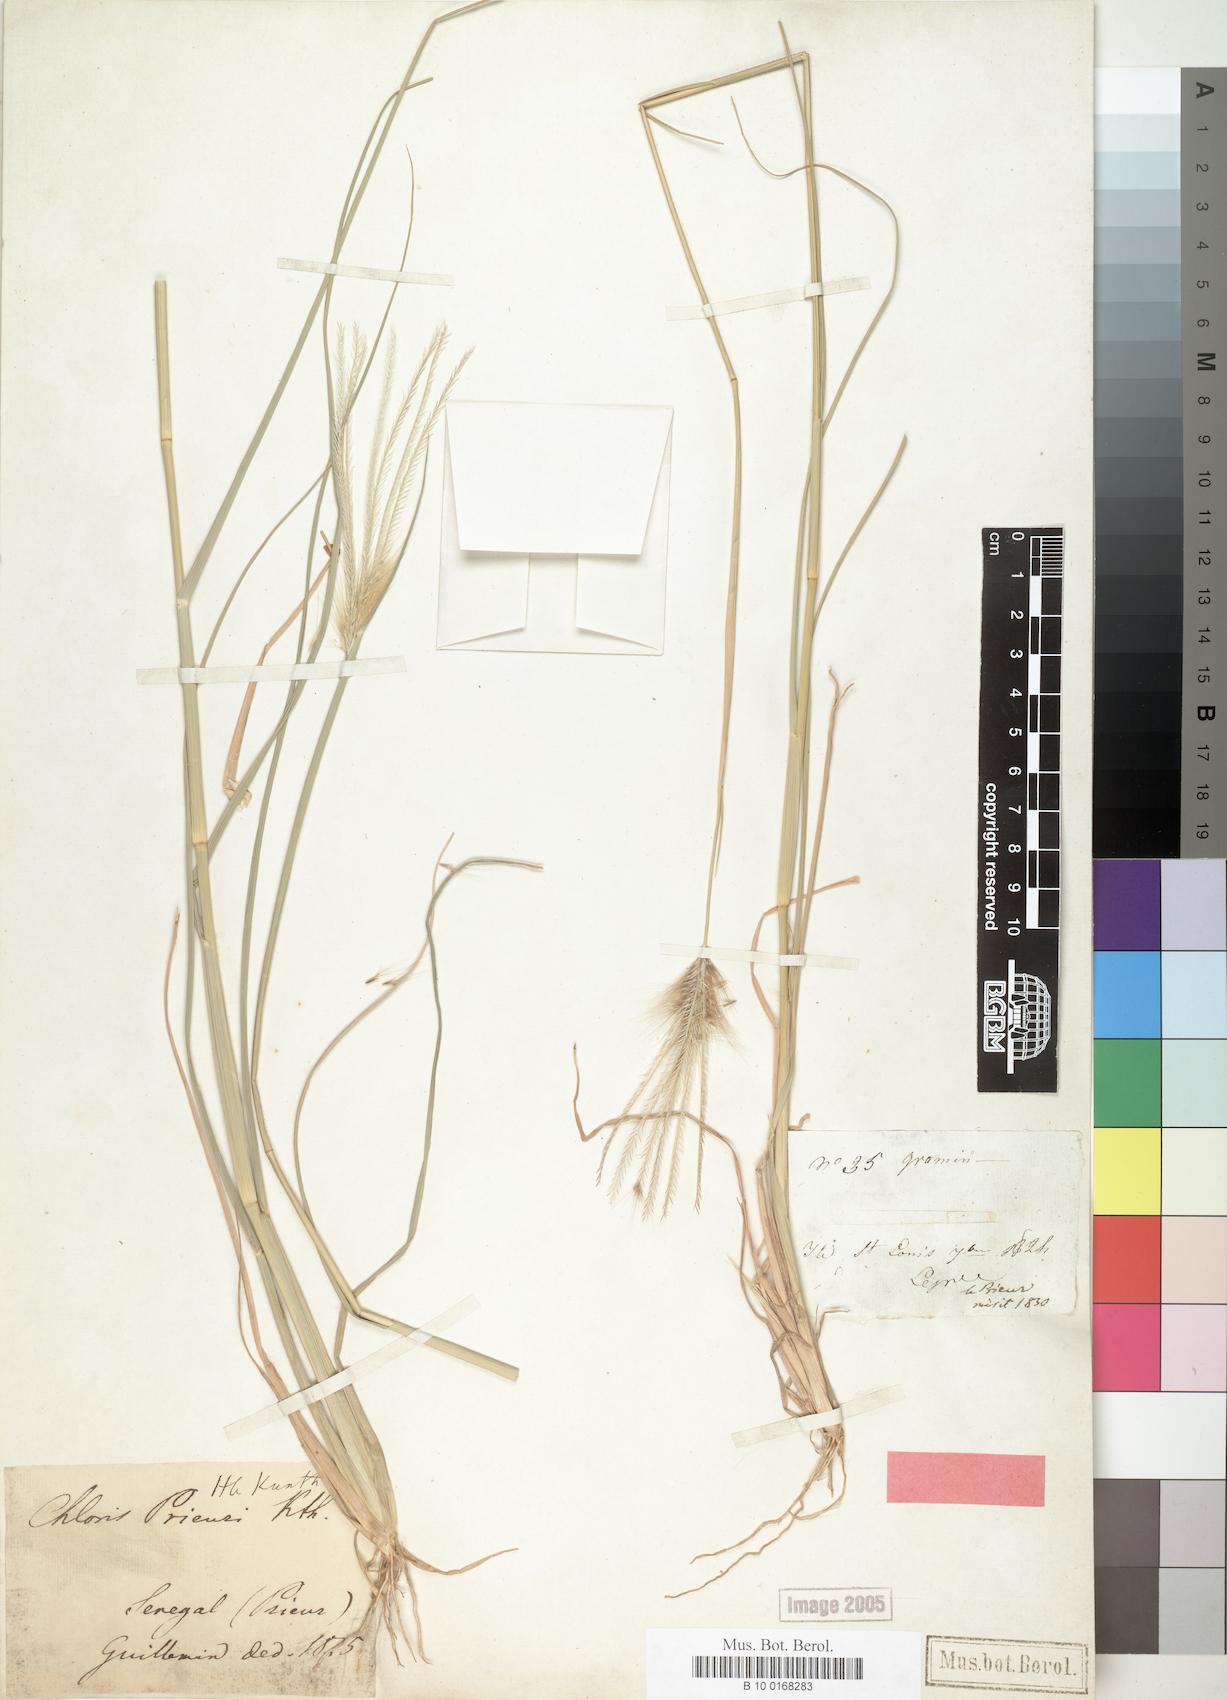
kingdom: Plantae
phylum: Tracheophyta
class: Liliopsida
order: Poales
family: Poaceae
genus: Enteropogon
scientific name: Enteropogon prieurii
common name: Prieur's umbrellagrass
